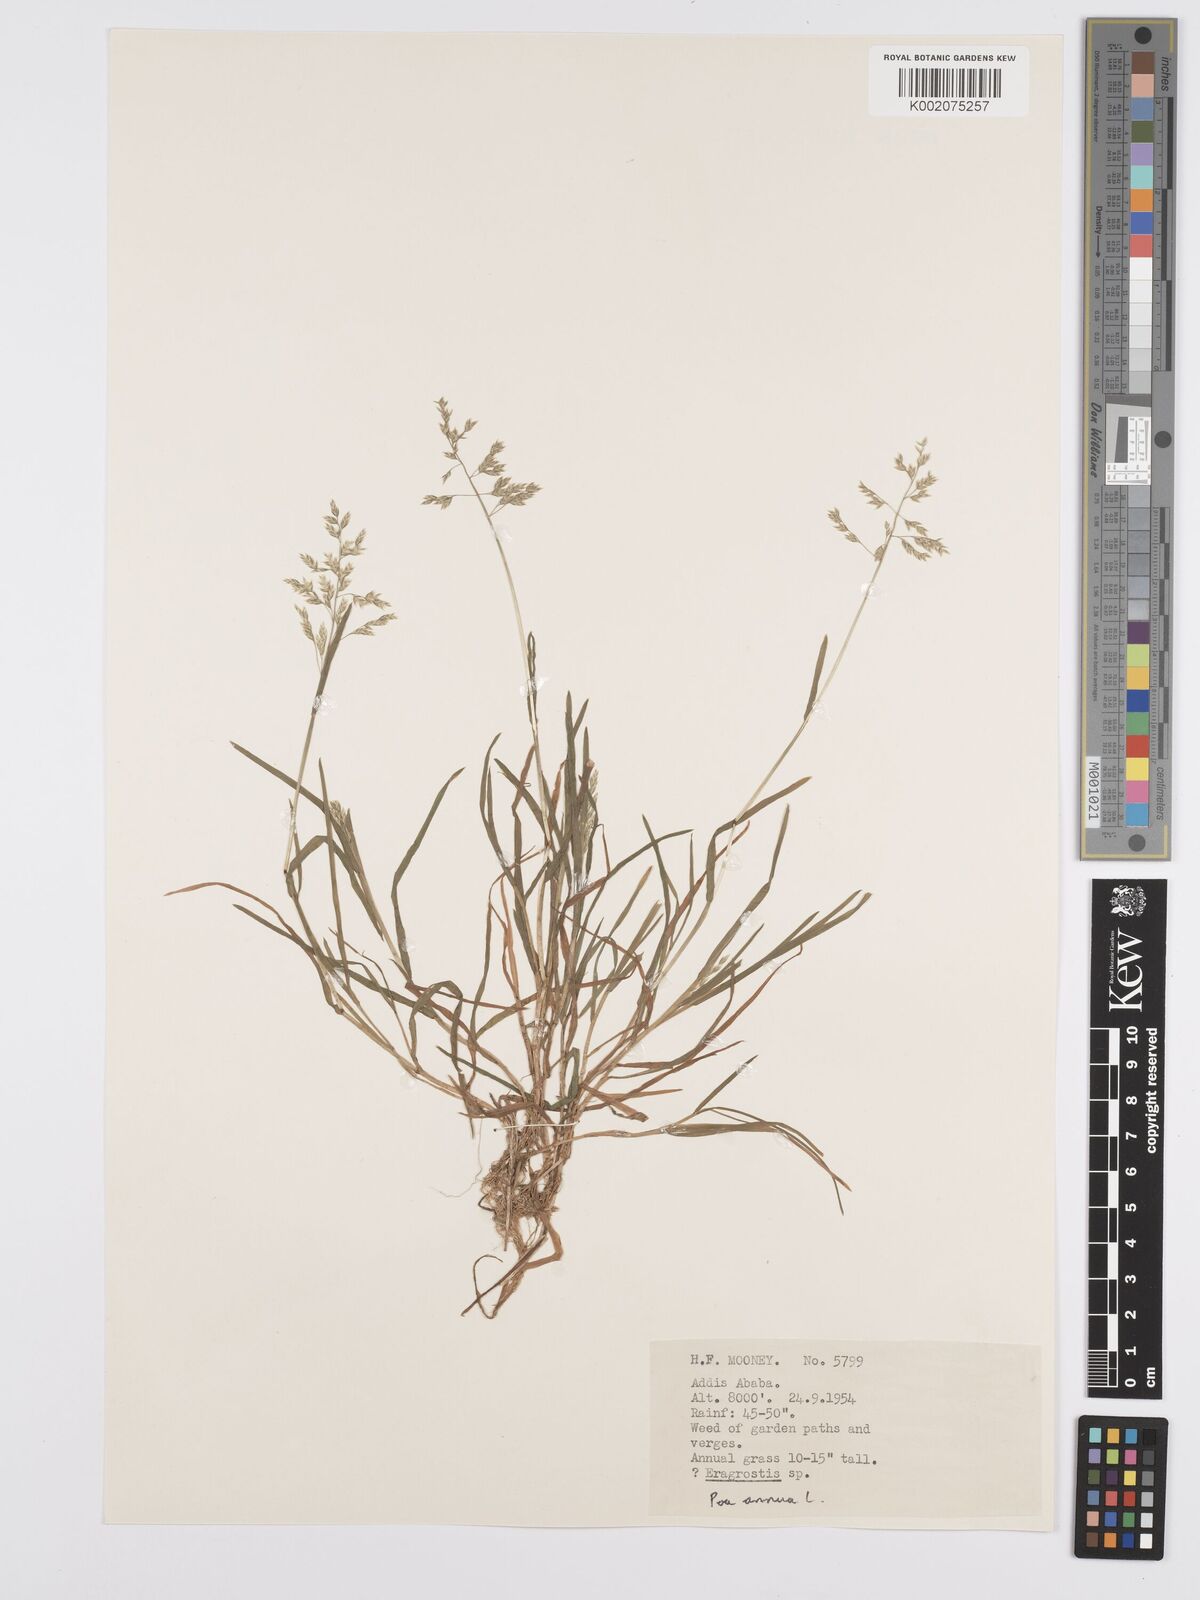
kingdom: Plantae
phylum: Tracheophyta
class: Liliopsida
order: Poales
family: Poaceae
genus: Poa
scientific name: Poa annua
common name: Annual bluegrass
